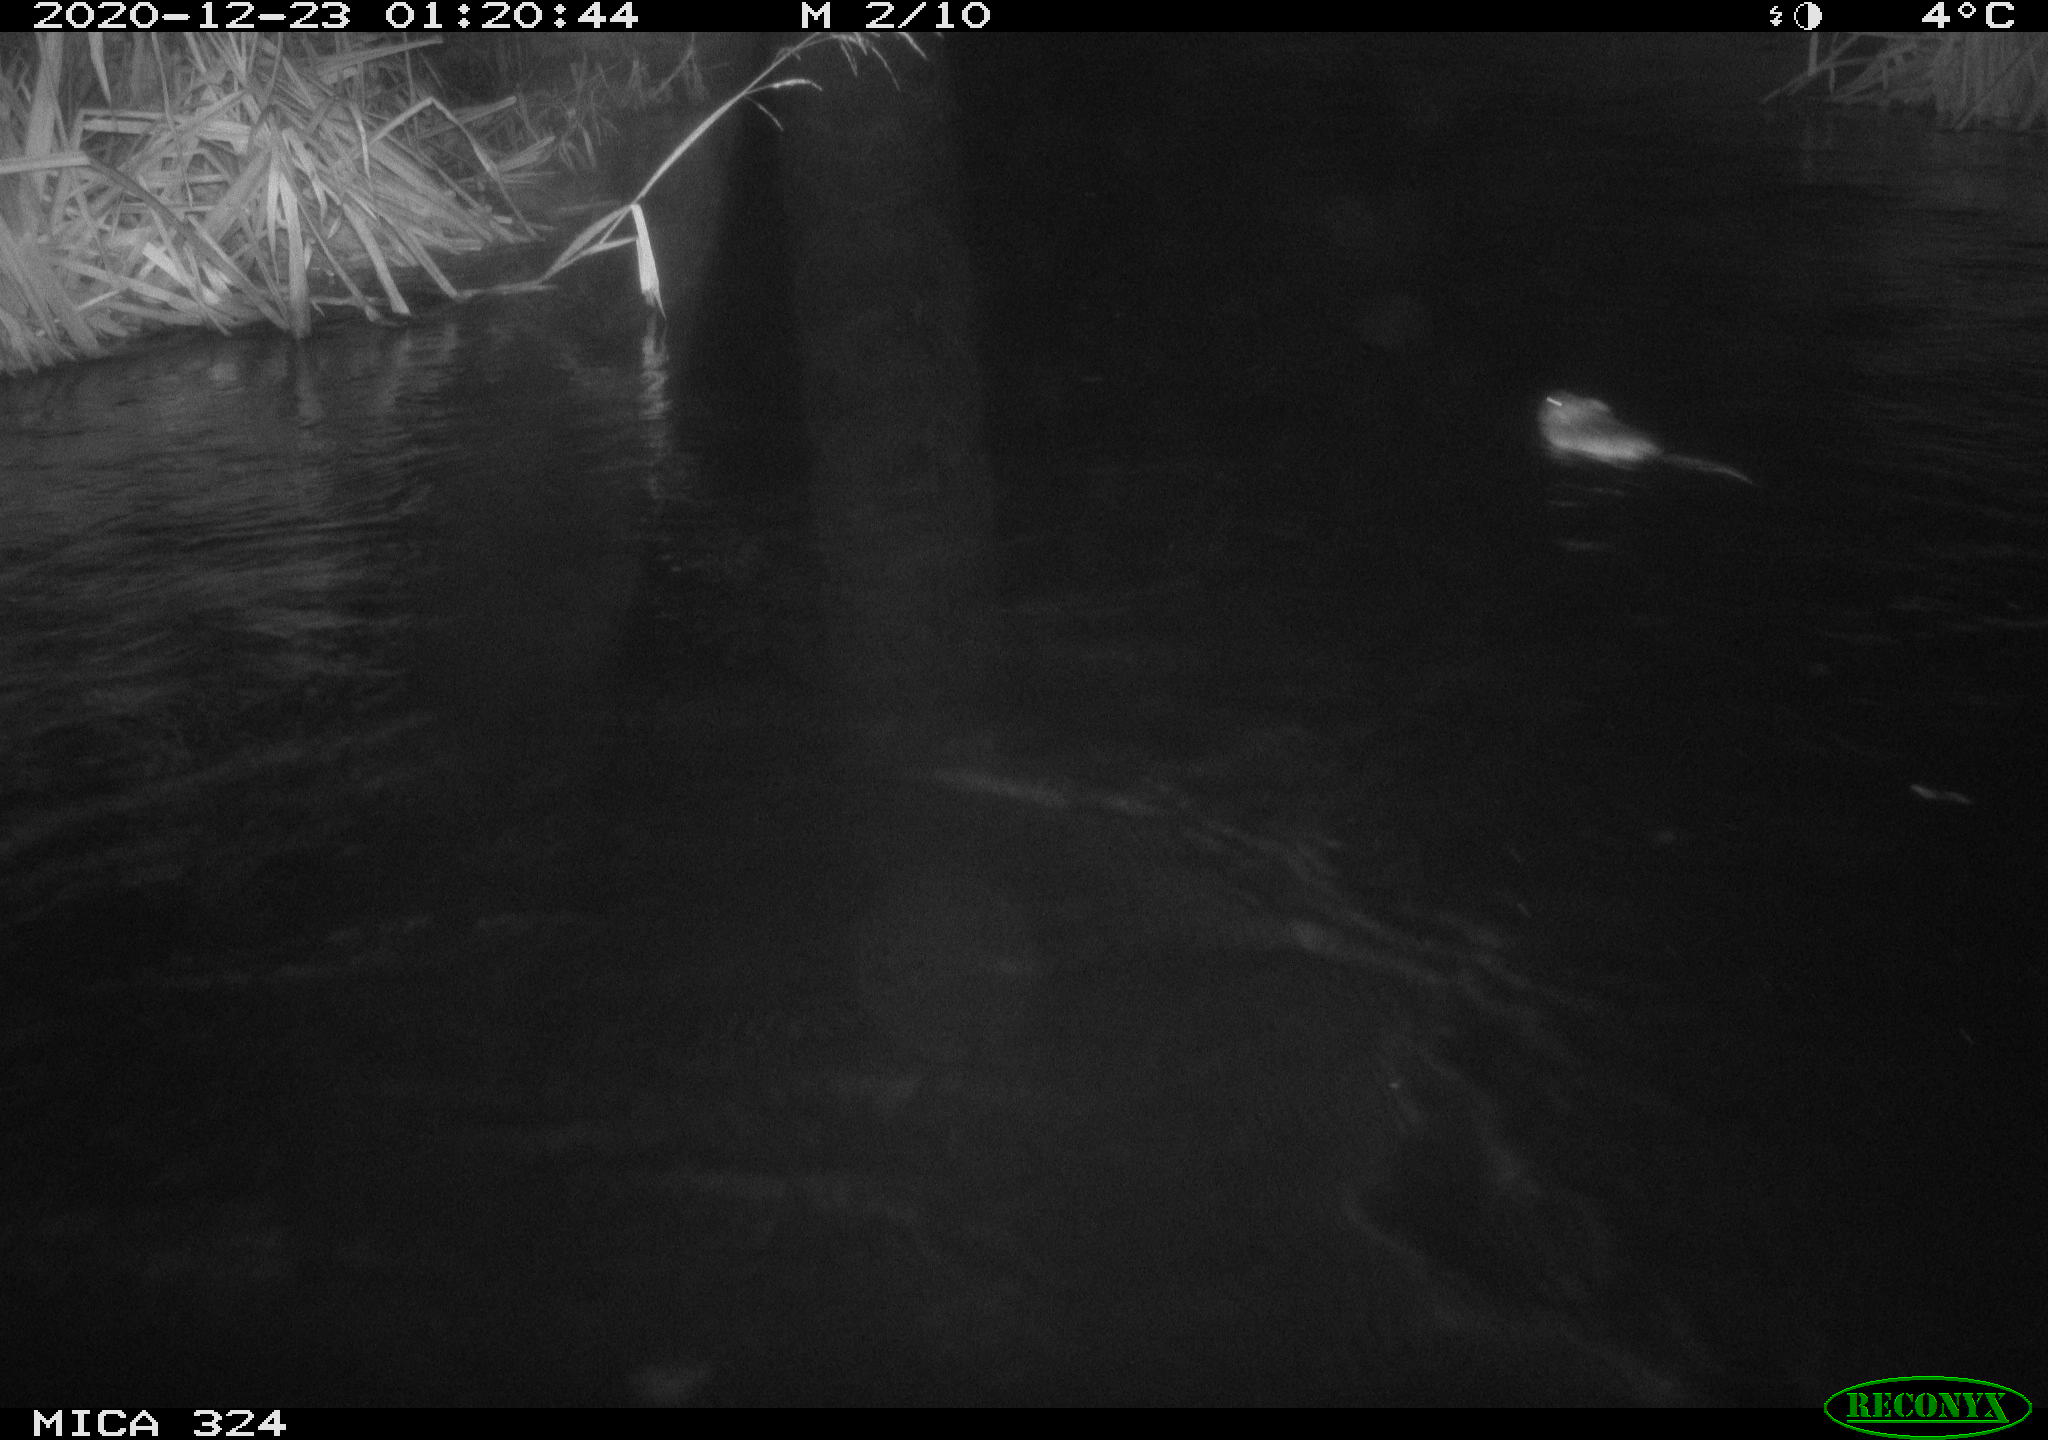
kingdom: Animalia
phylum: Chordata
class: Mammalia
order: Rodentia
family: Cricetidae
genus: Ondatra
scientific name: Ondatra zibethicus
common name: Muskrat
